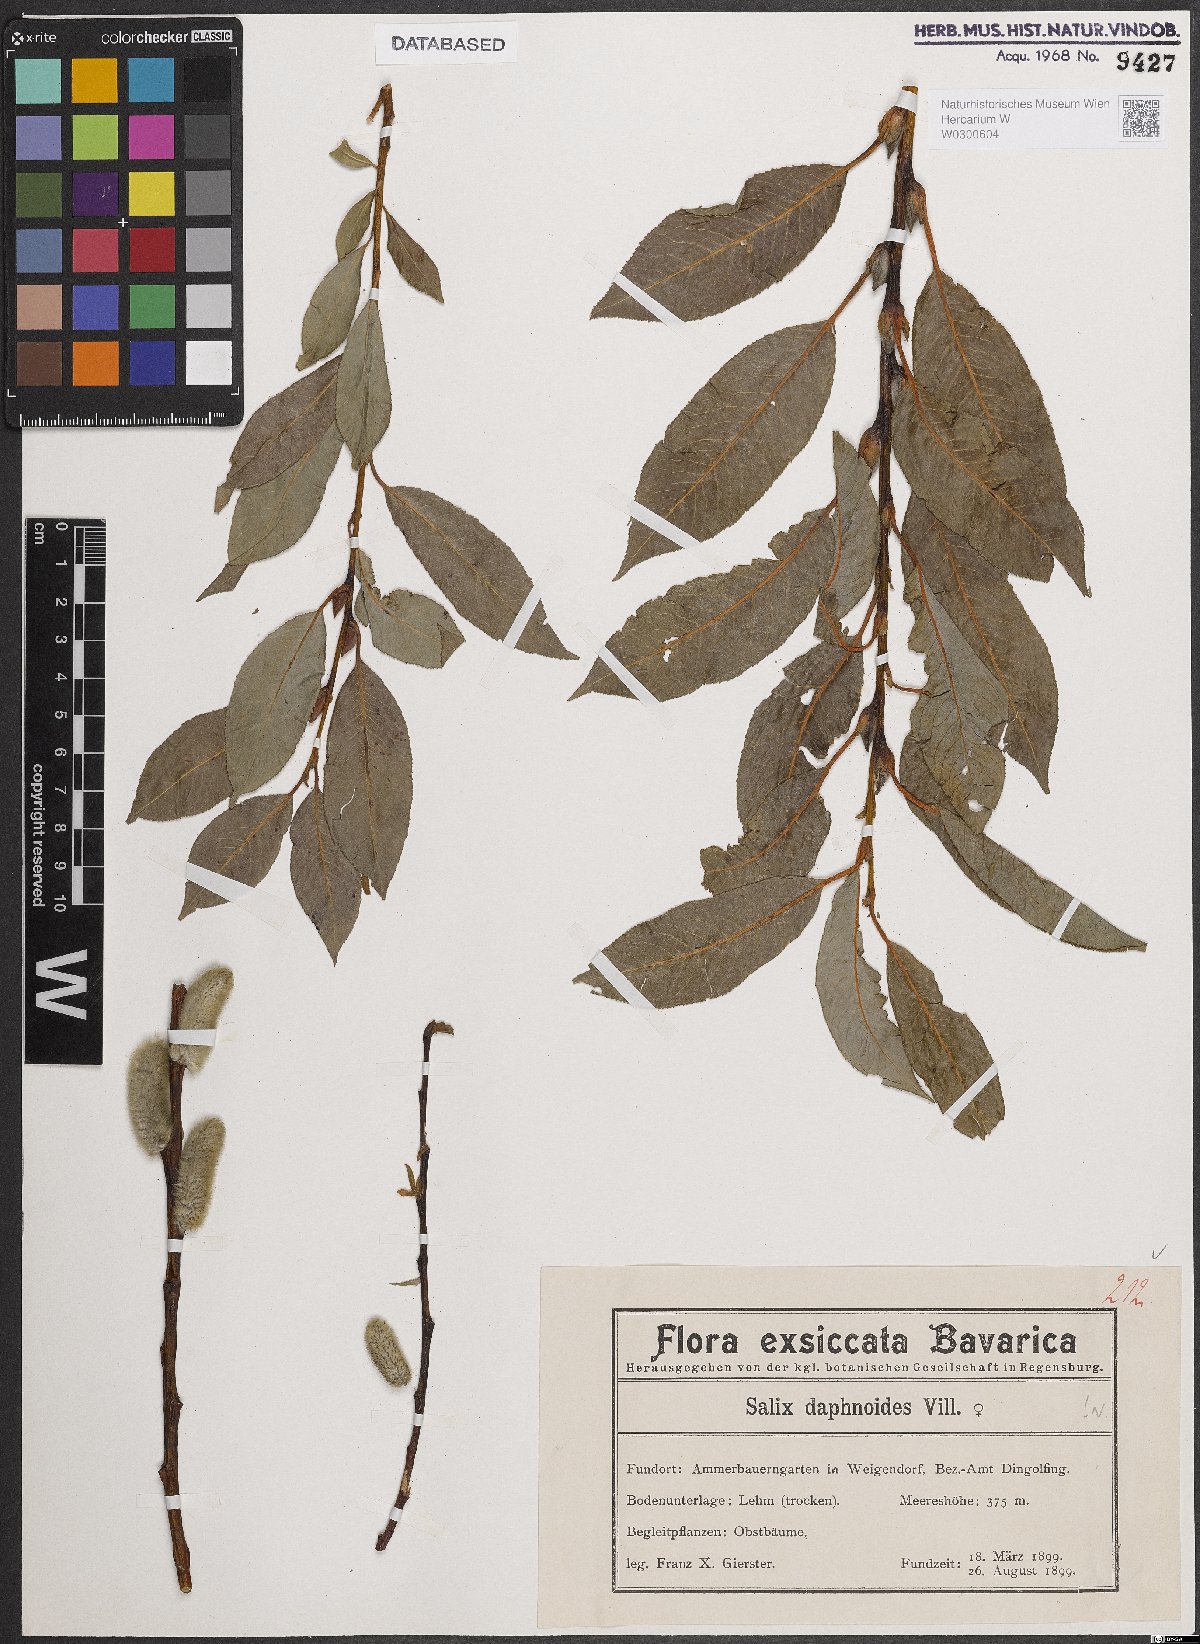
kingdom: Plantae
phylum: Tracheophyta
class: Magnoliopsida
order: Malpighiales
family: Salicaceae
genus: Salix
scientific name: Salix daphnoides
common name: European violet-willow
